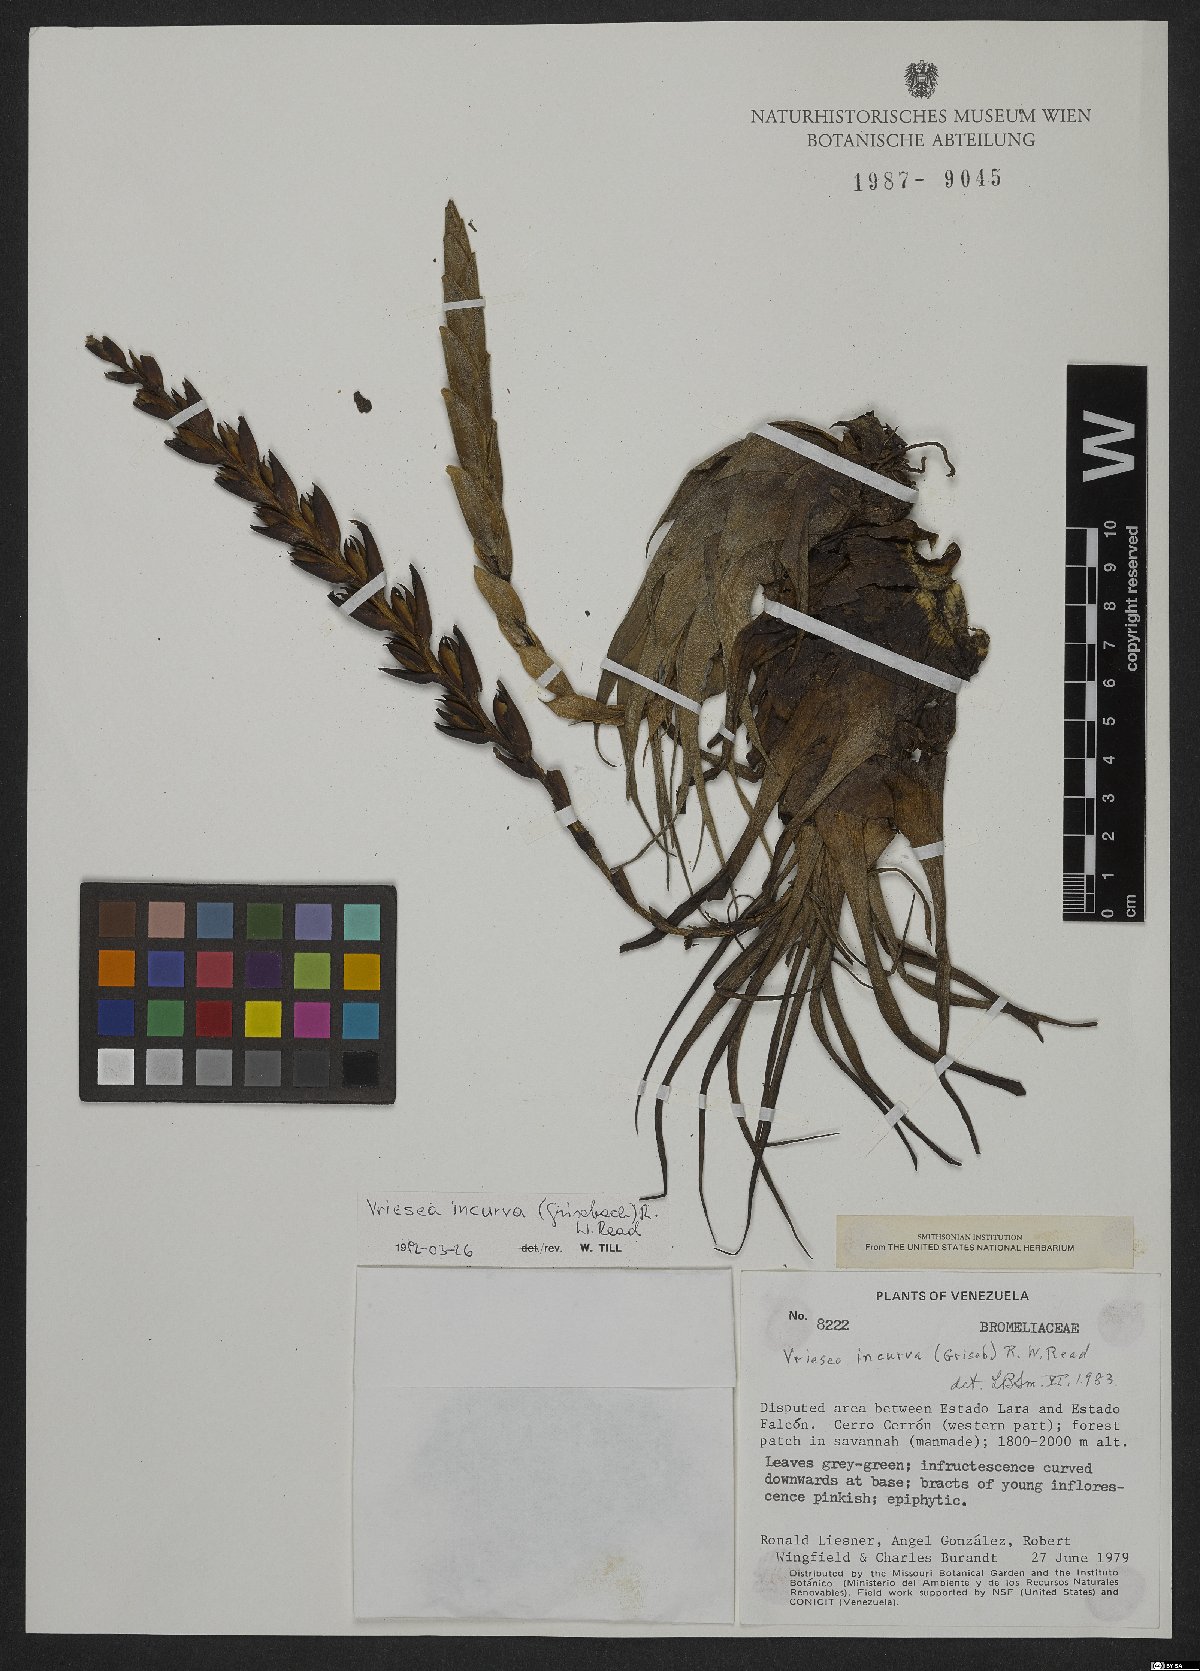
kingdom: Plantae
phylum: Tracheophyta
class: Liliopsida
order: Poales
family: Bromeliaceae
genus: Vriesea
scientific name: Vriesea incurva
